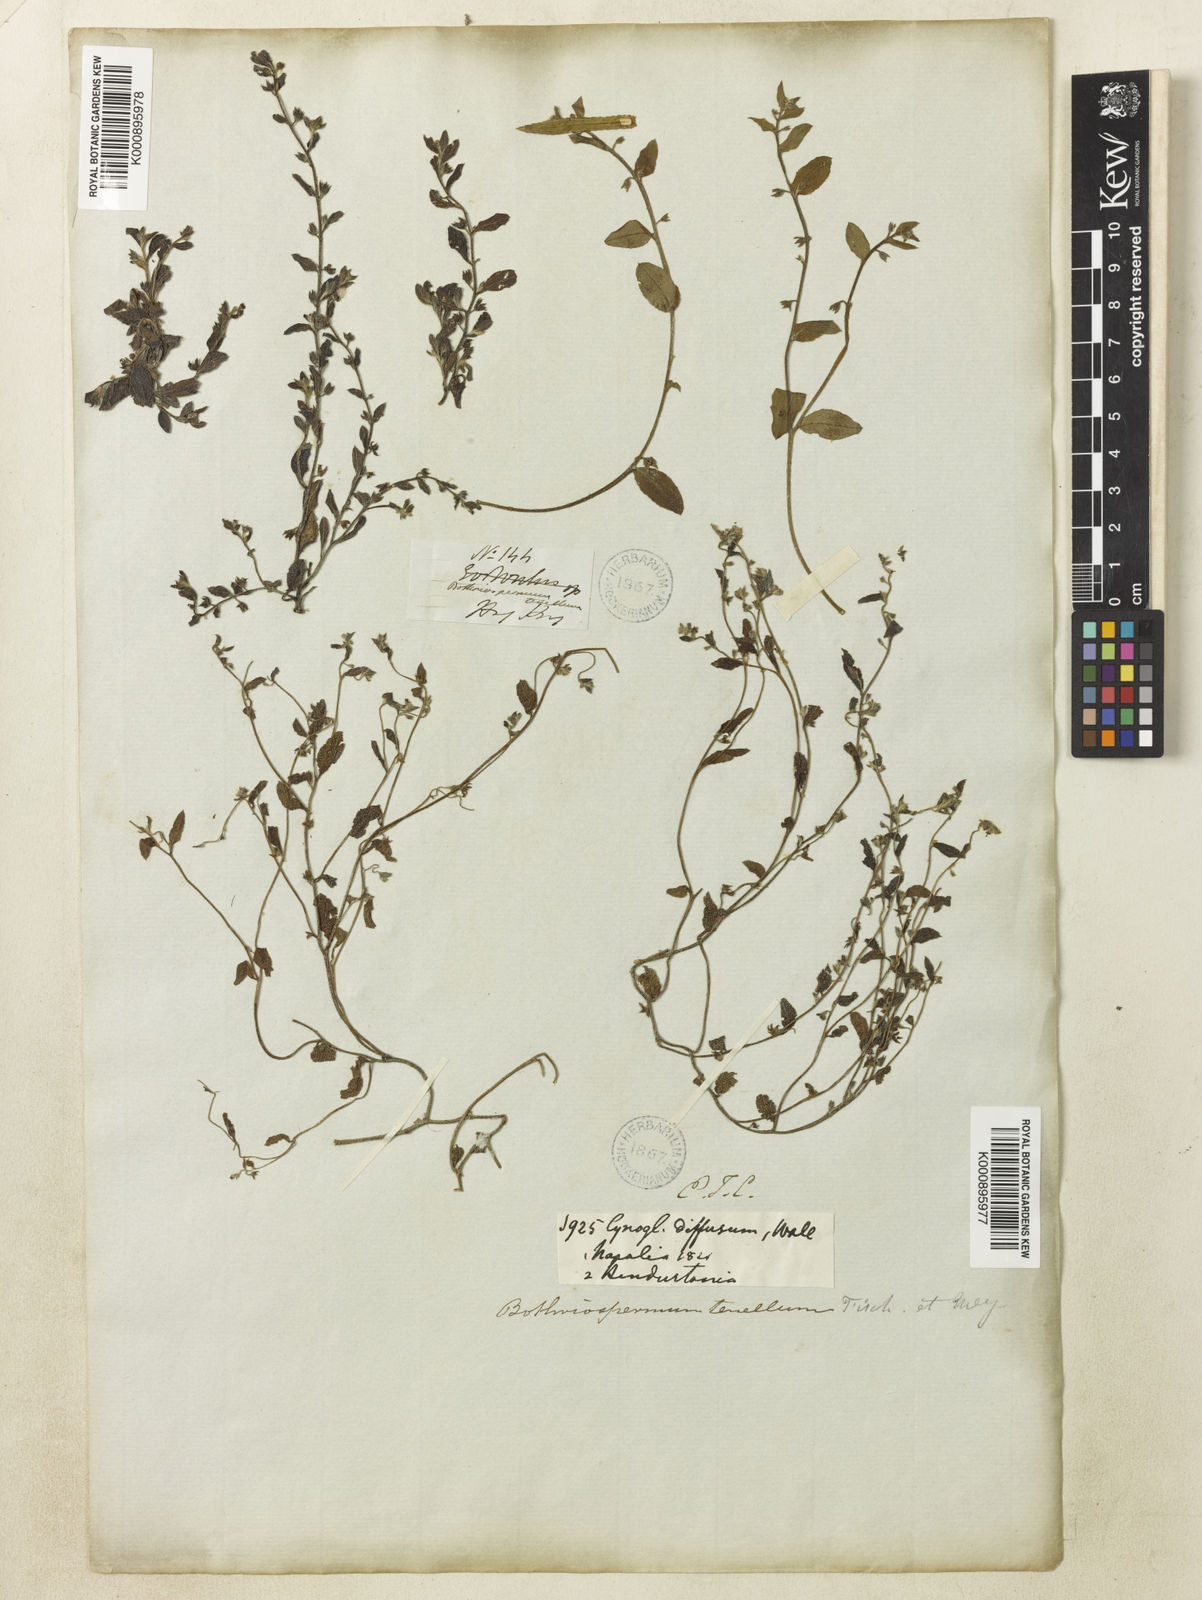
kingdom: Plantae
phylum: Tracheophyta
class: Magnoliopsida
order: Boraginales
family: Boraginaceae
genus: Bothriospermum
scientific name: Bothriospermum zeylanicum
